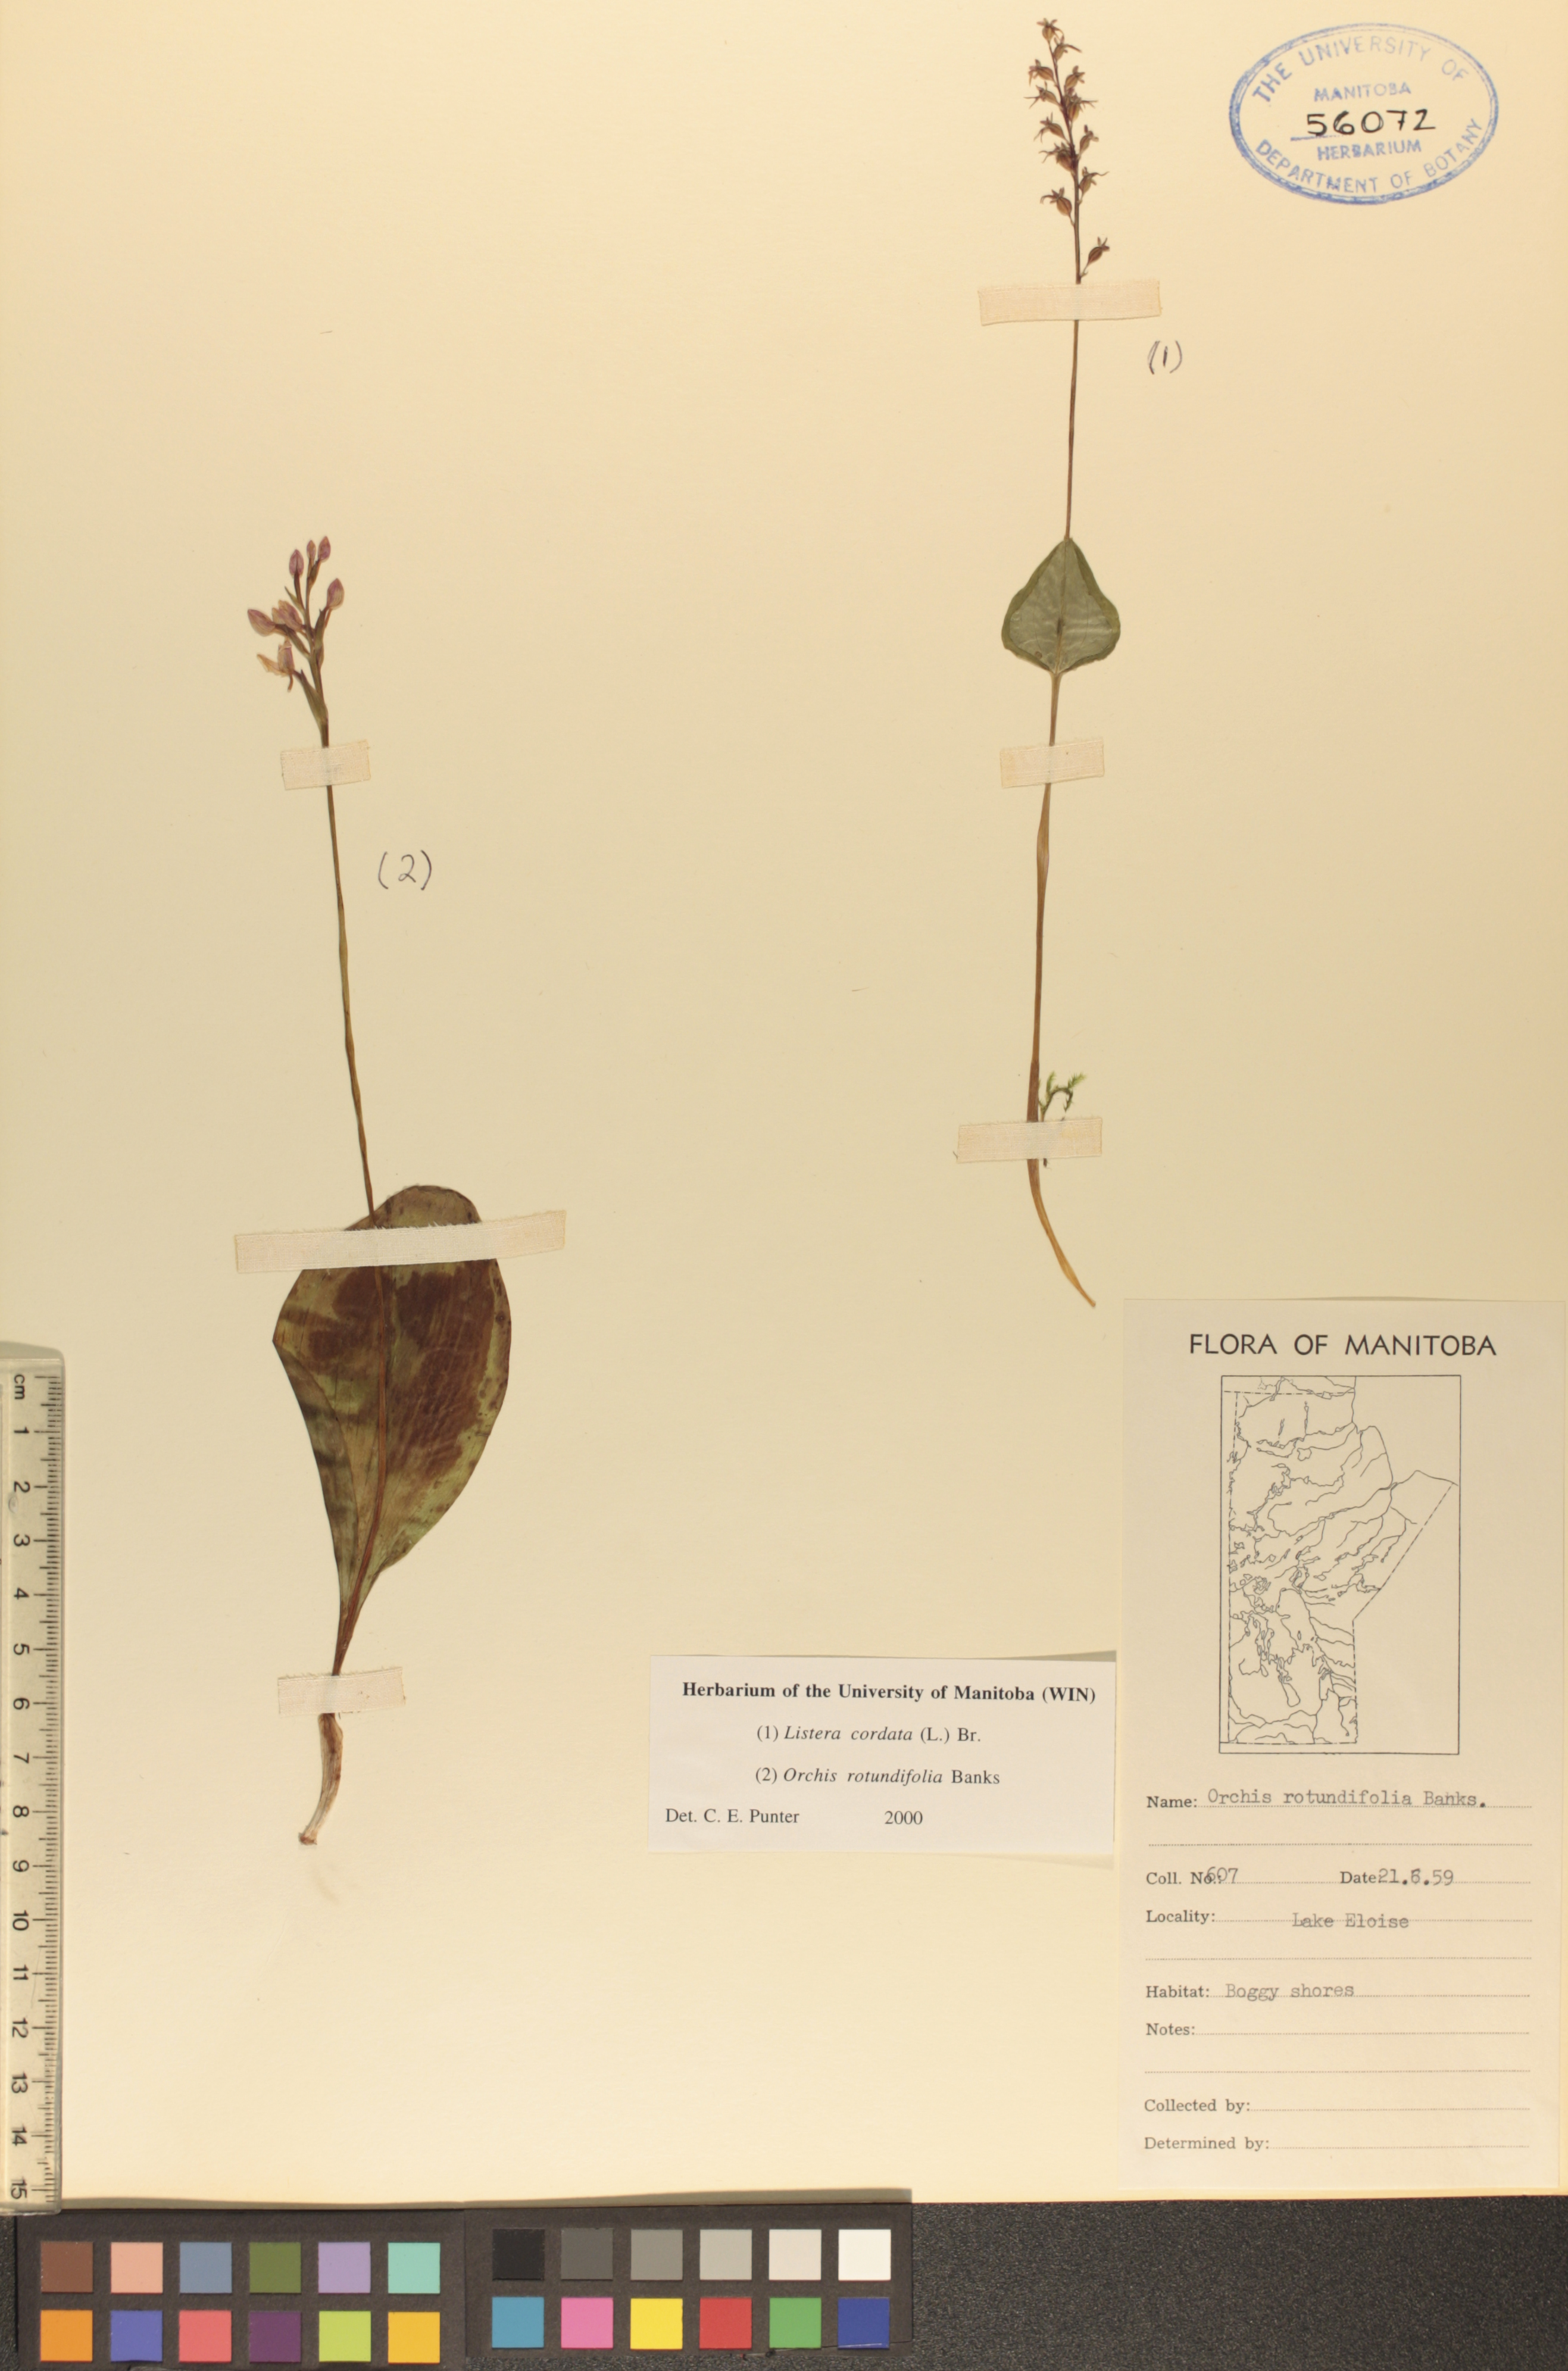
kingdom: Plantae
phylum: Tracheophyta
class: Liliopsida
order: Asparagales
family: Orchidaceae
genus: Galearis
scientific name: Galearis rotundifolia
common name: One-leaved orchis
